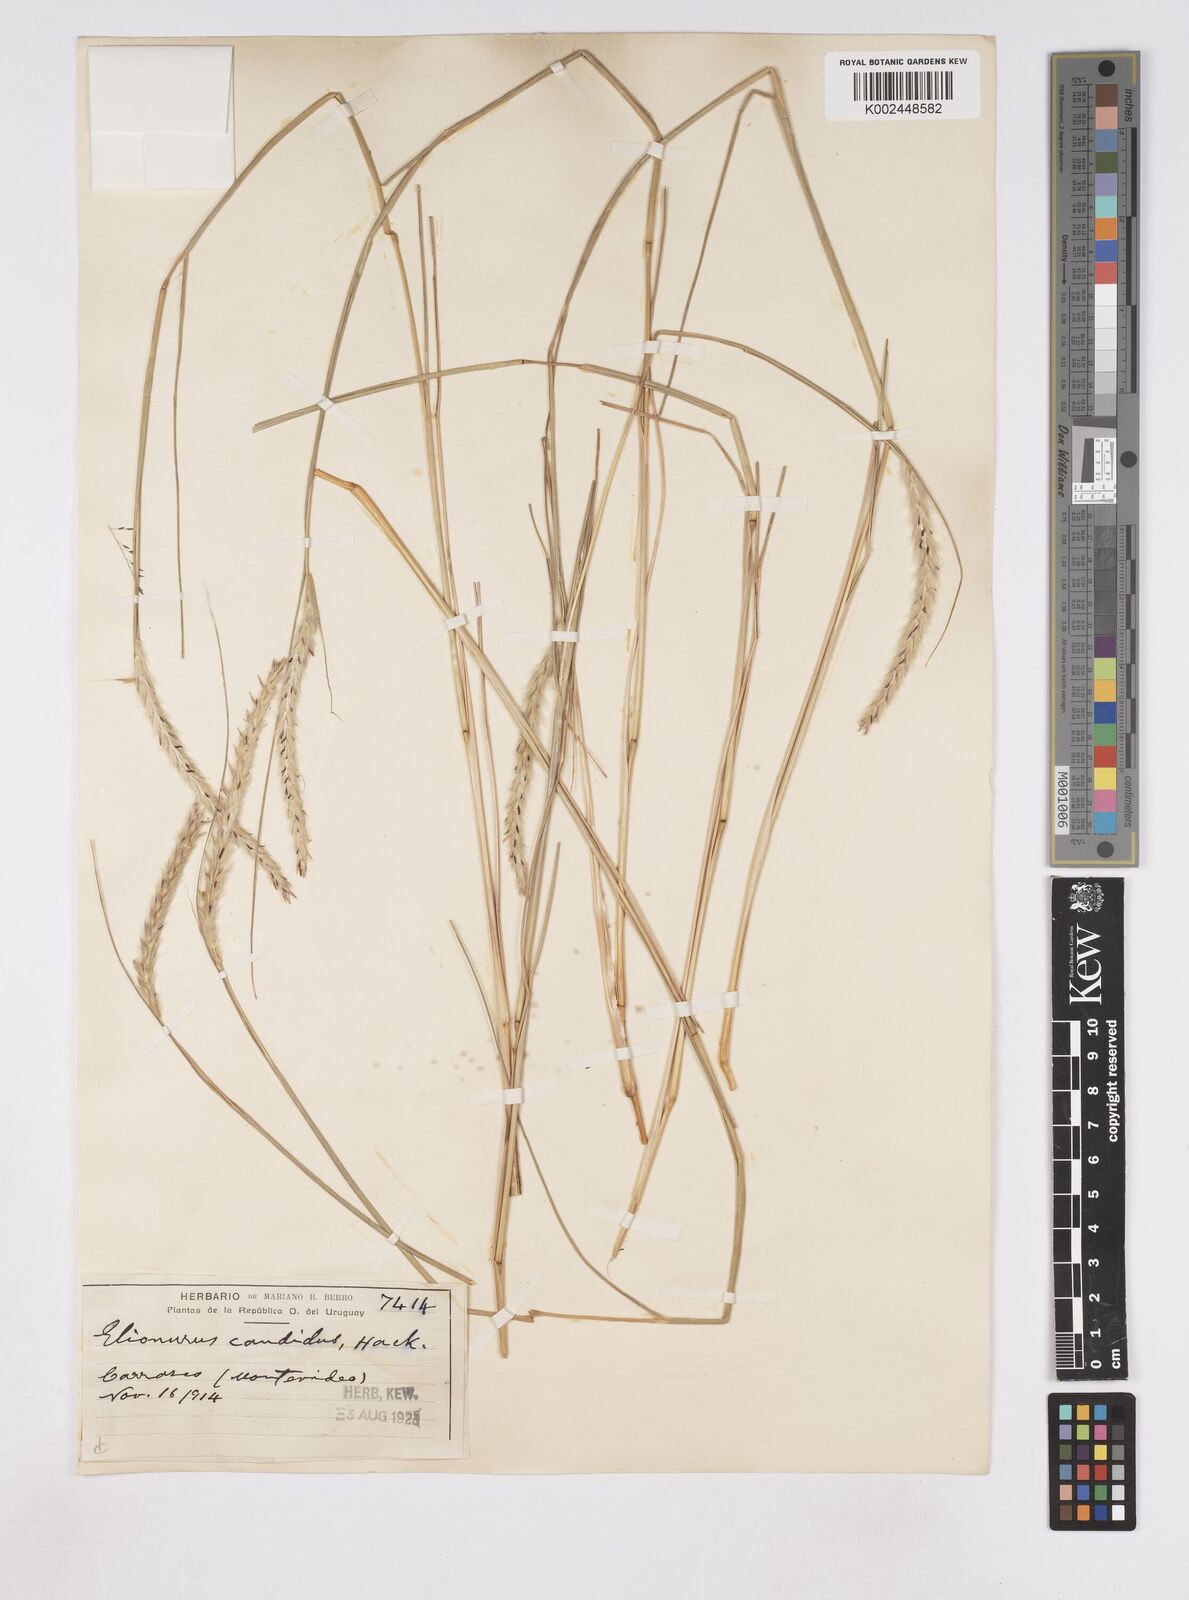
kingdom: Plantae
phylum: Tracheophyta
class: Liliopsida
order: Poales
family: Poaceae
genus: Elionurus
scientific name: Elionurus muticus
